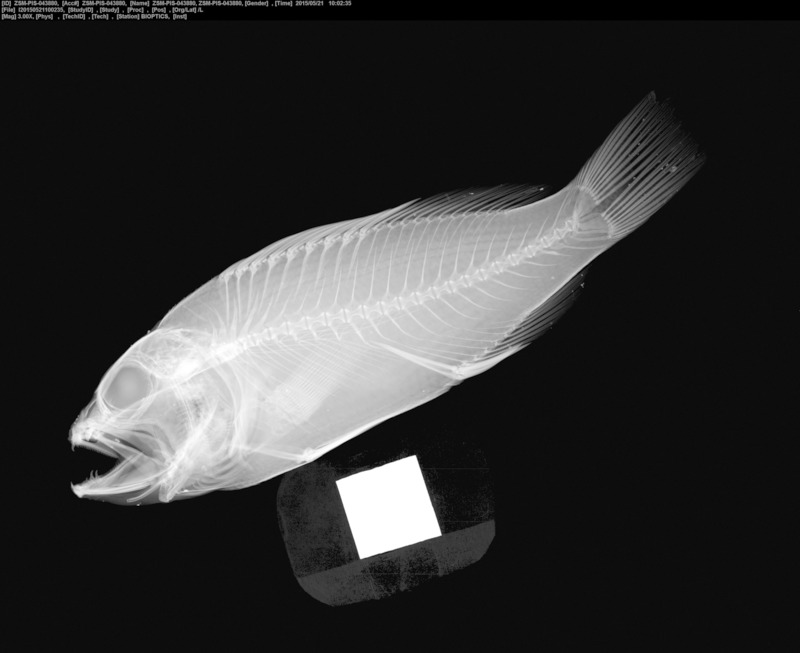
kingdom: Animalia
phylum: Chordata
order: Perciformes
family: Serranidae
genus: Serranus
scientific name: Serranus pulcher
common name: São tomé comber
